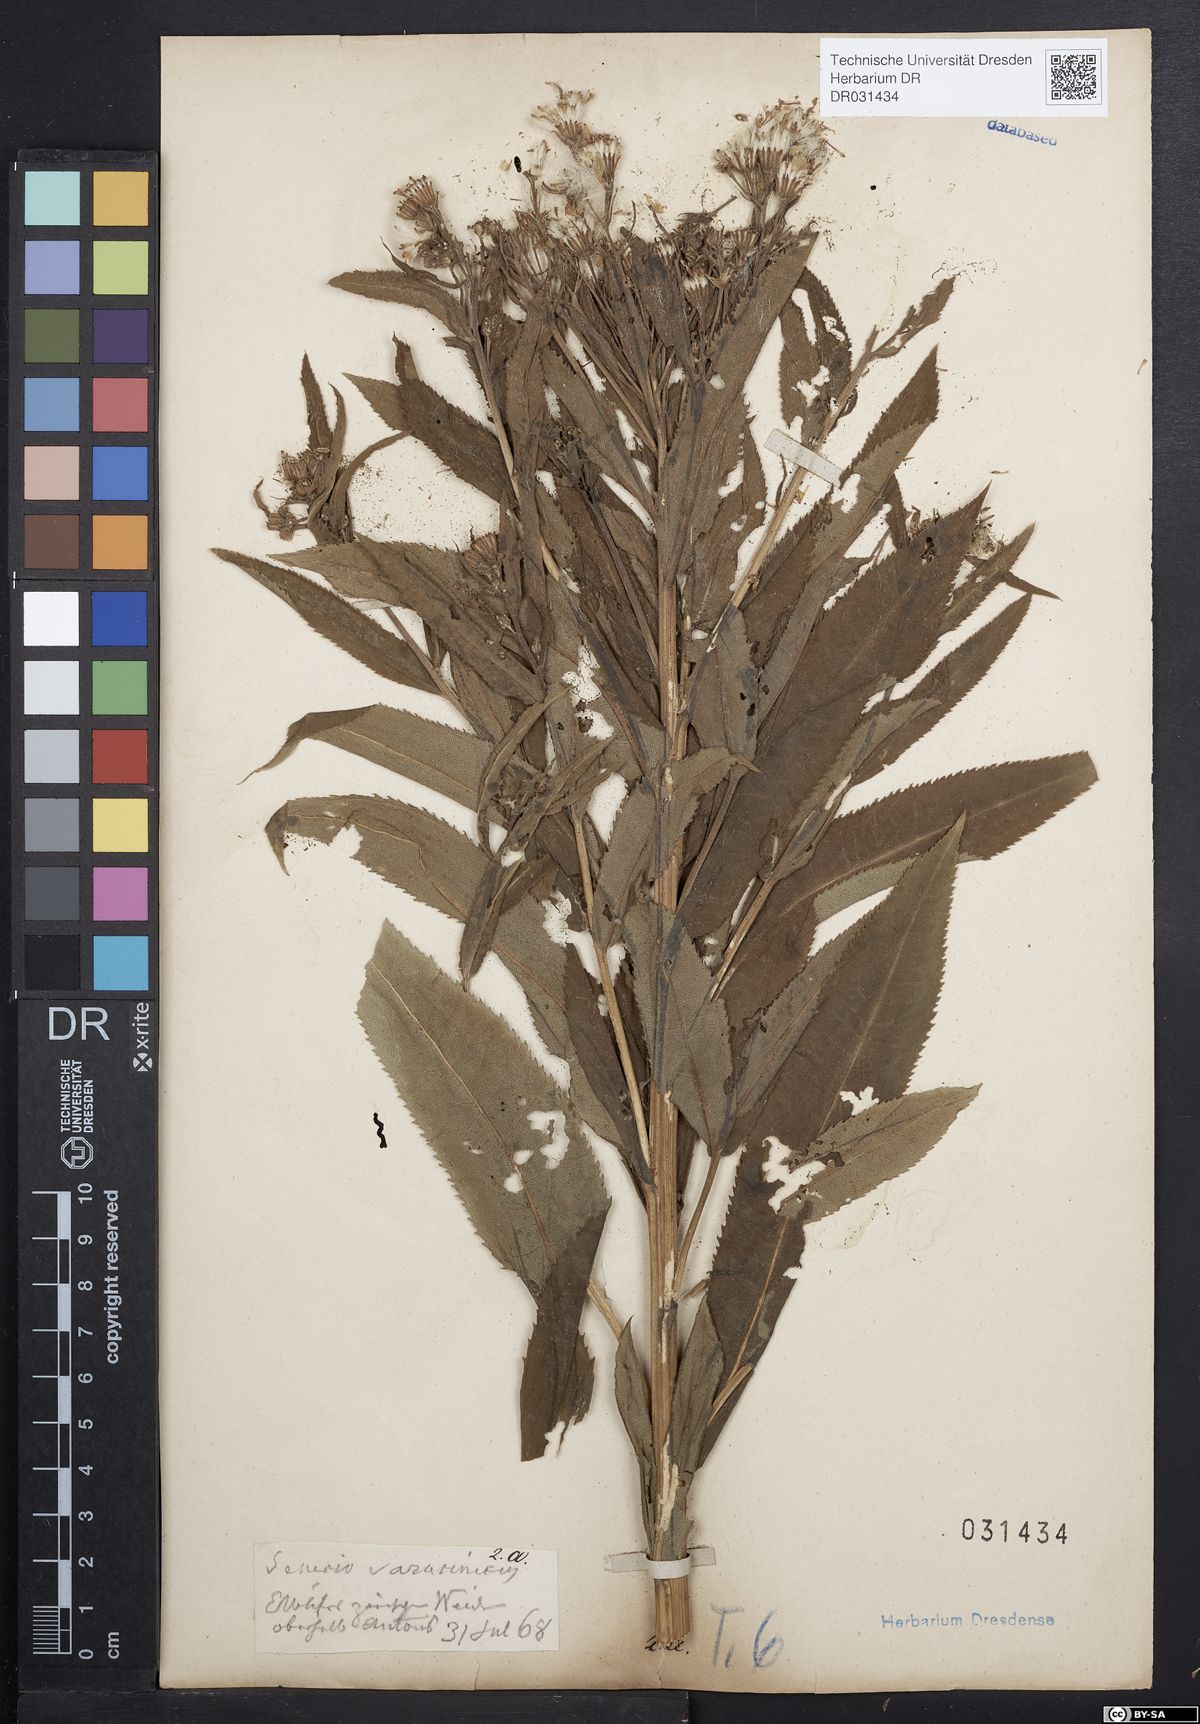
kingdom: Plantae
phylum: Tracheophyta
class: Magnoliopsida
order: Asterales
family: Asteraceae
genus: Senecio
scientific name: Senecio saracenicus
